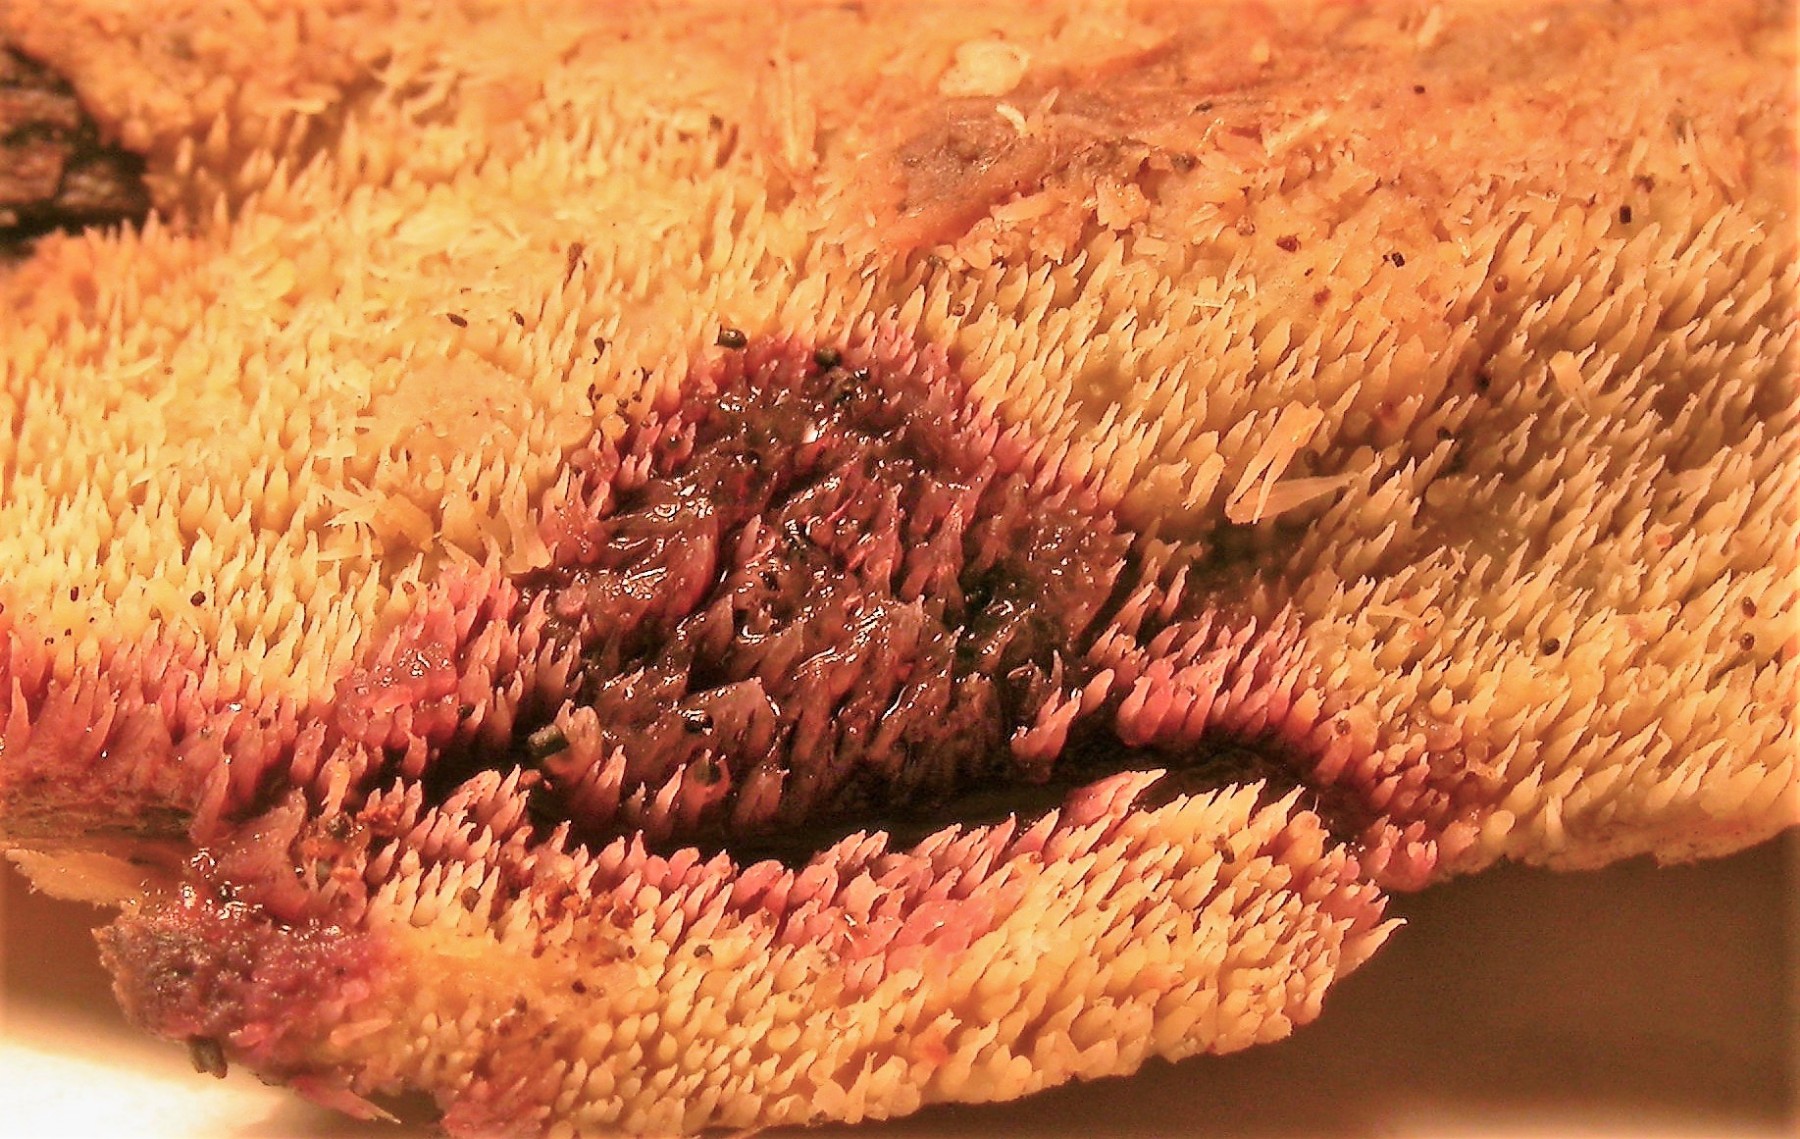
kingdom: Fungi
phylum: Basidiomycota
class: Agaricomycetes
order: Polyporales
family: Meruliaceae
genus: Mycoacia
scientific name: Mycoacia uda
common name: citrongul vokspig
